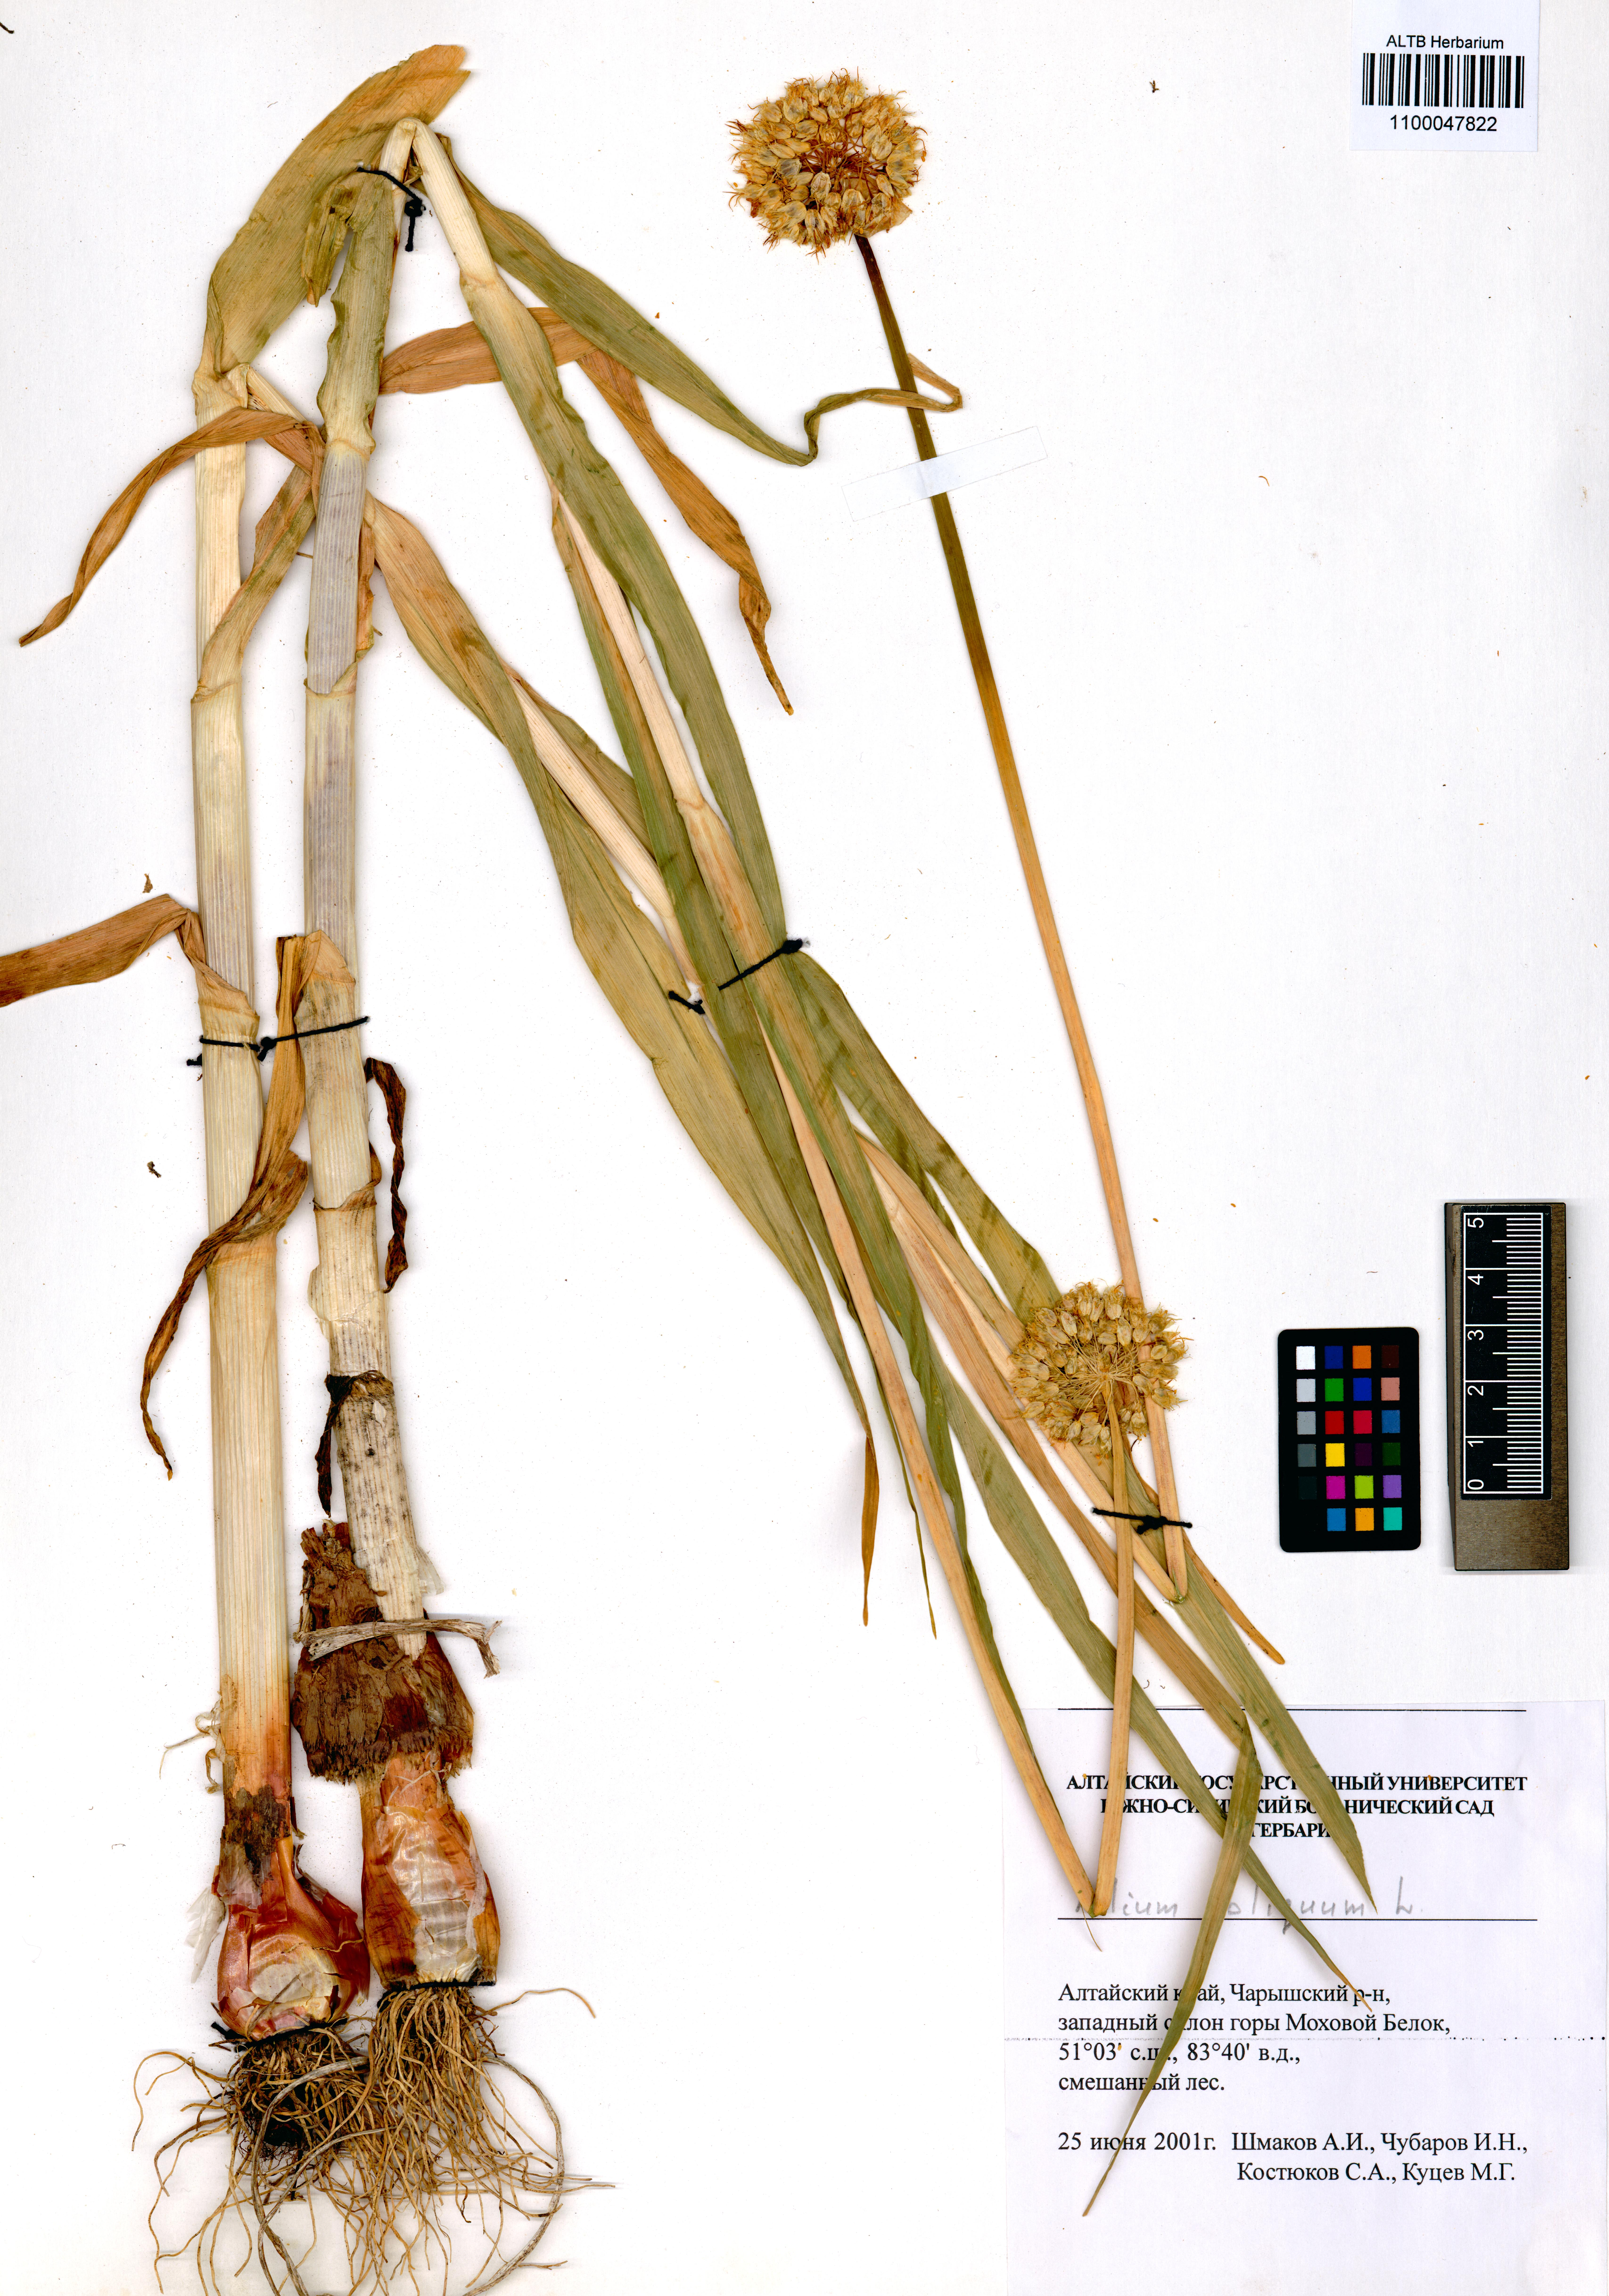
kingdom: Plantae
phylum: Tracheophyta
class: Liliopsida
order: Asparagales
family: Amaryllidaceae
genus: Allium
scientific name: Allium obliquum
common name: Oblique onion
